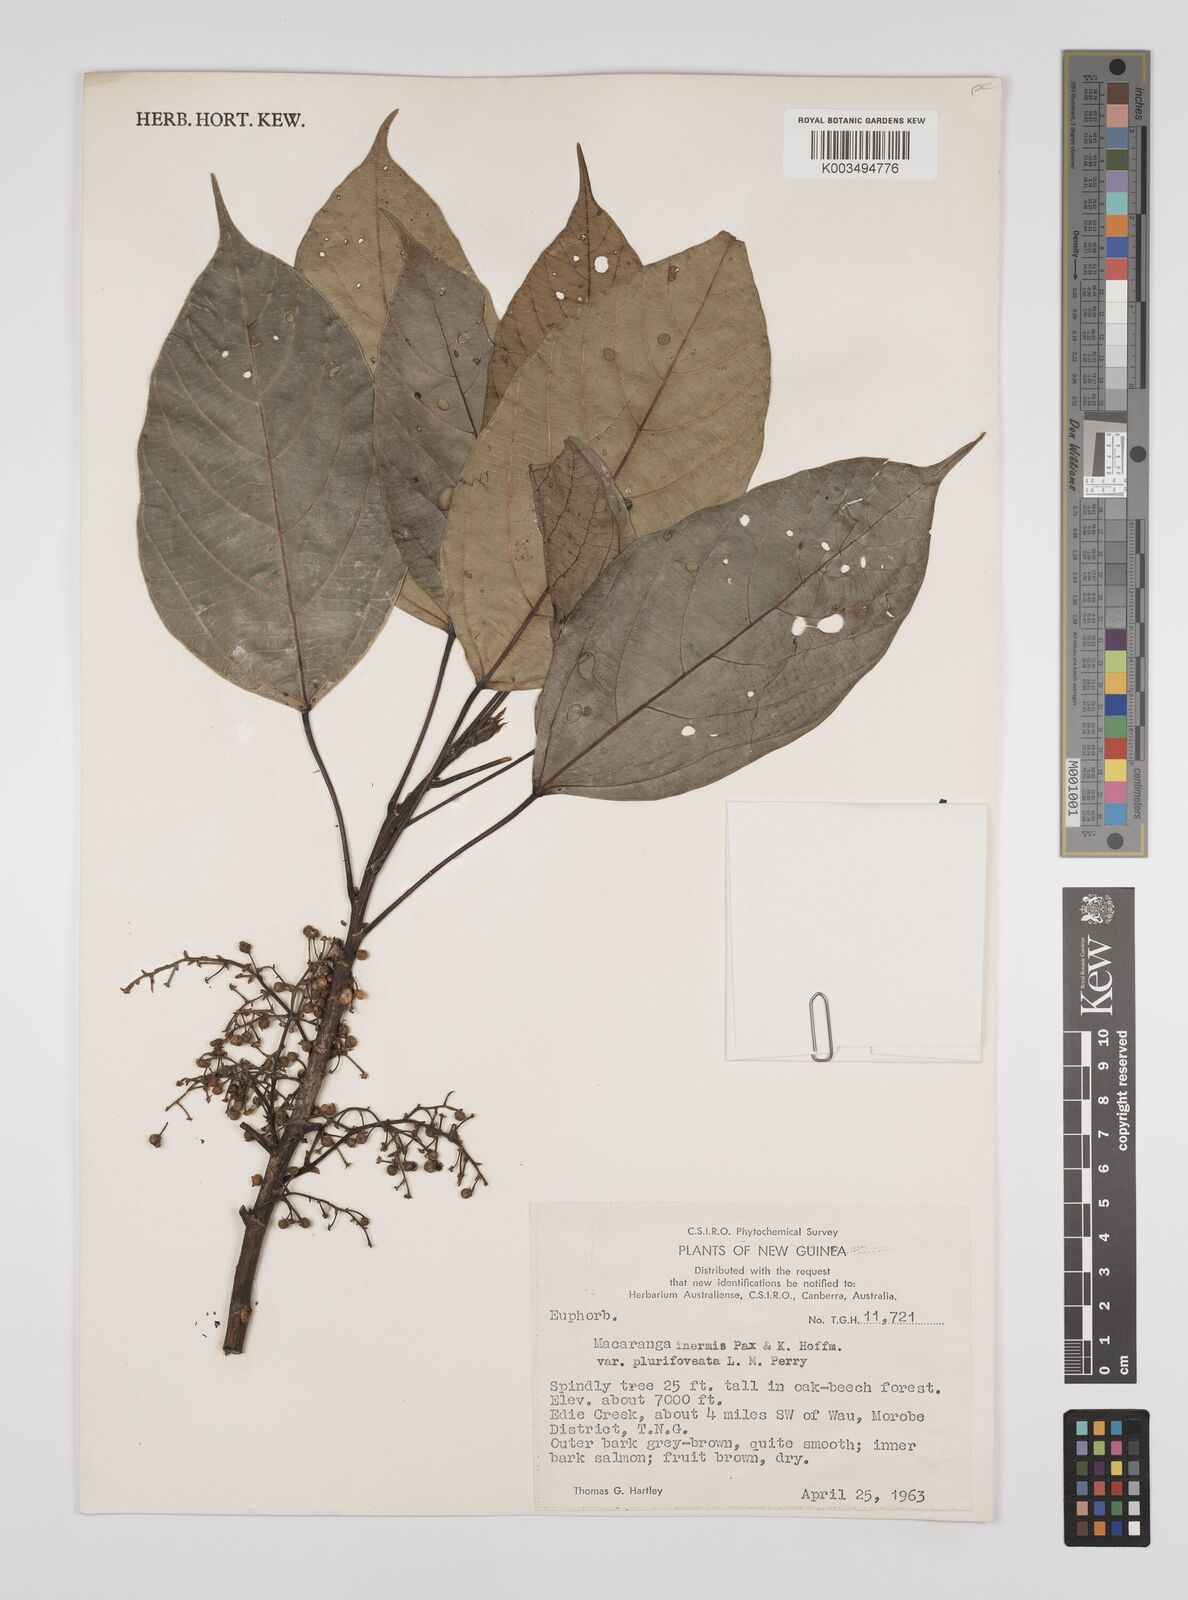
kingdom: Plantae
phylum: Tracheophyta
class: Magnoliopsida
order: Malpighiales
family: Euphorbiaceae
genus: Macaranga
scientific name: Macaranga inermis
